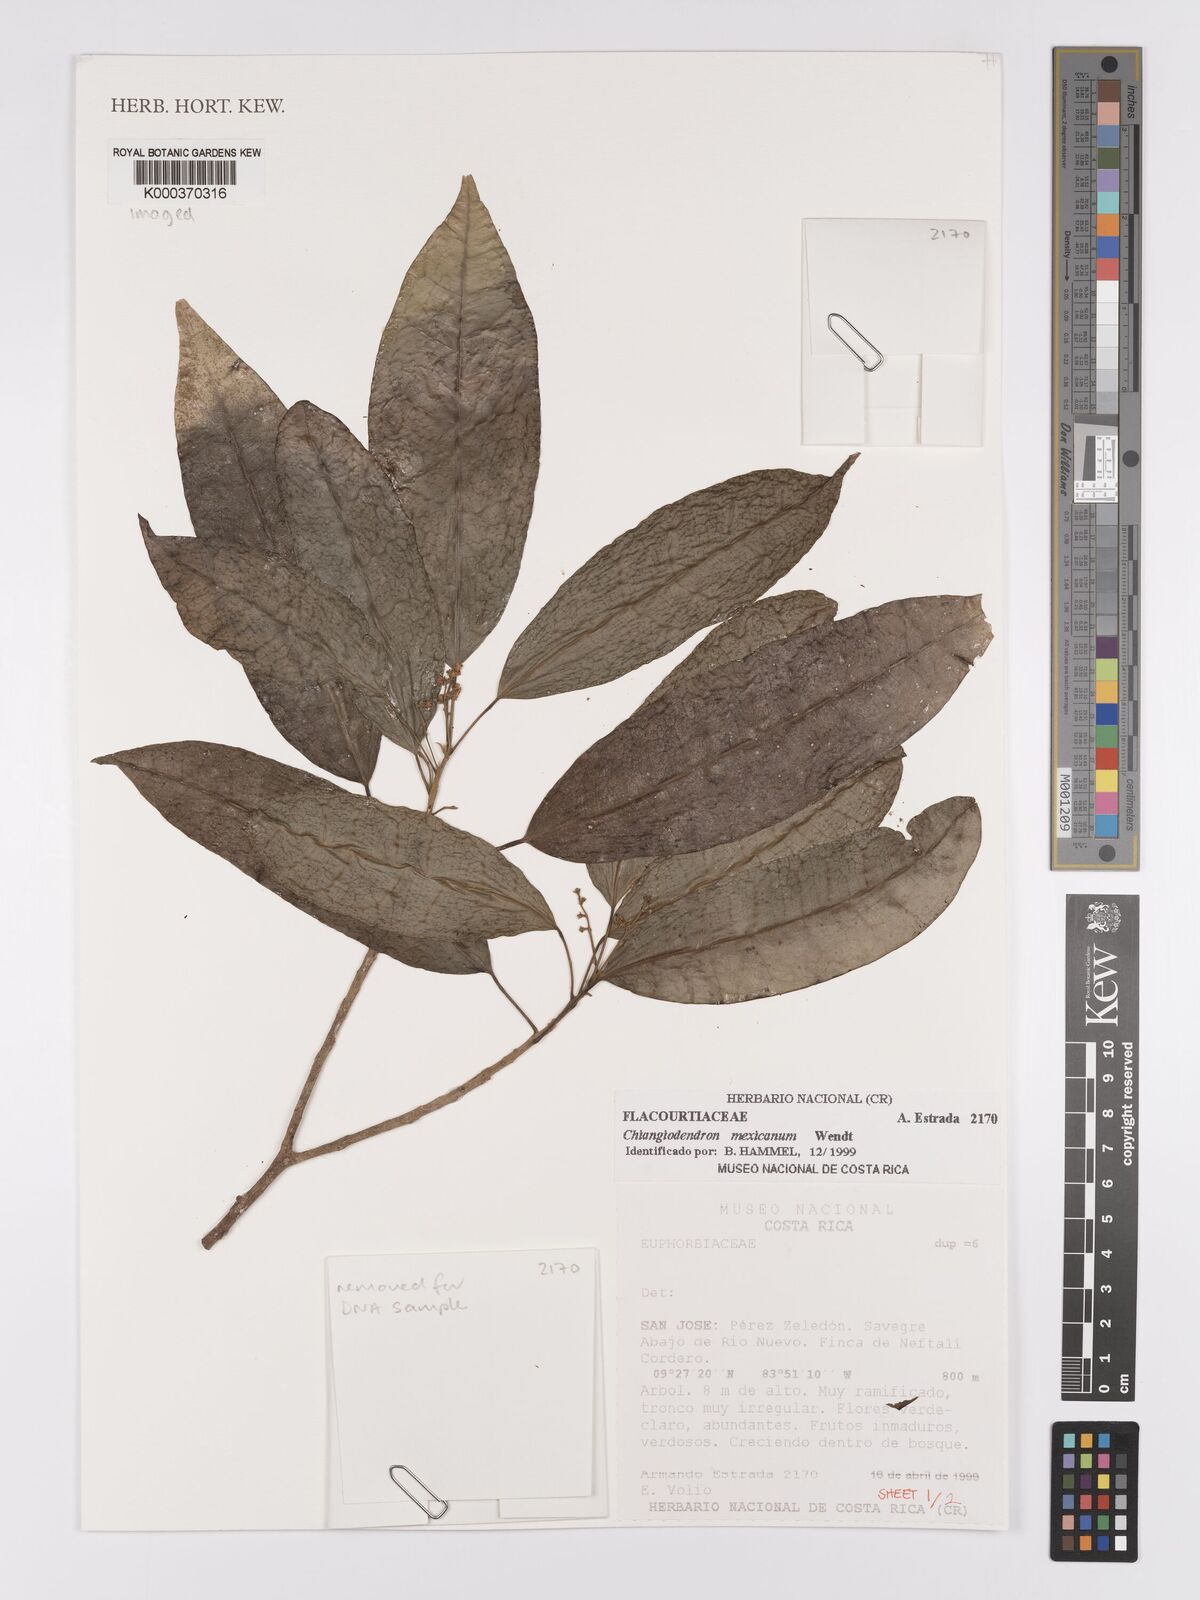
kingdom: Plantae
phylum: Tracheophyta
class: Magnoliopsida
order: Malpighiales
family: Achariaceae
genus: Chiangiodendron
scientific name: Chiangiodendron mexicanum
